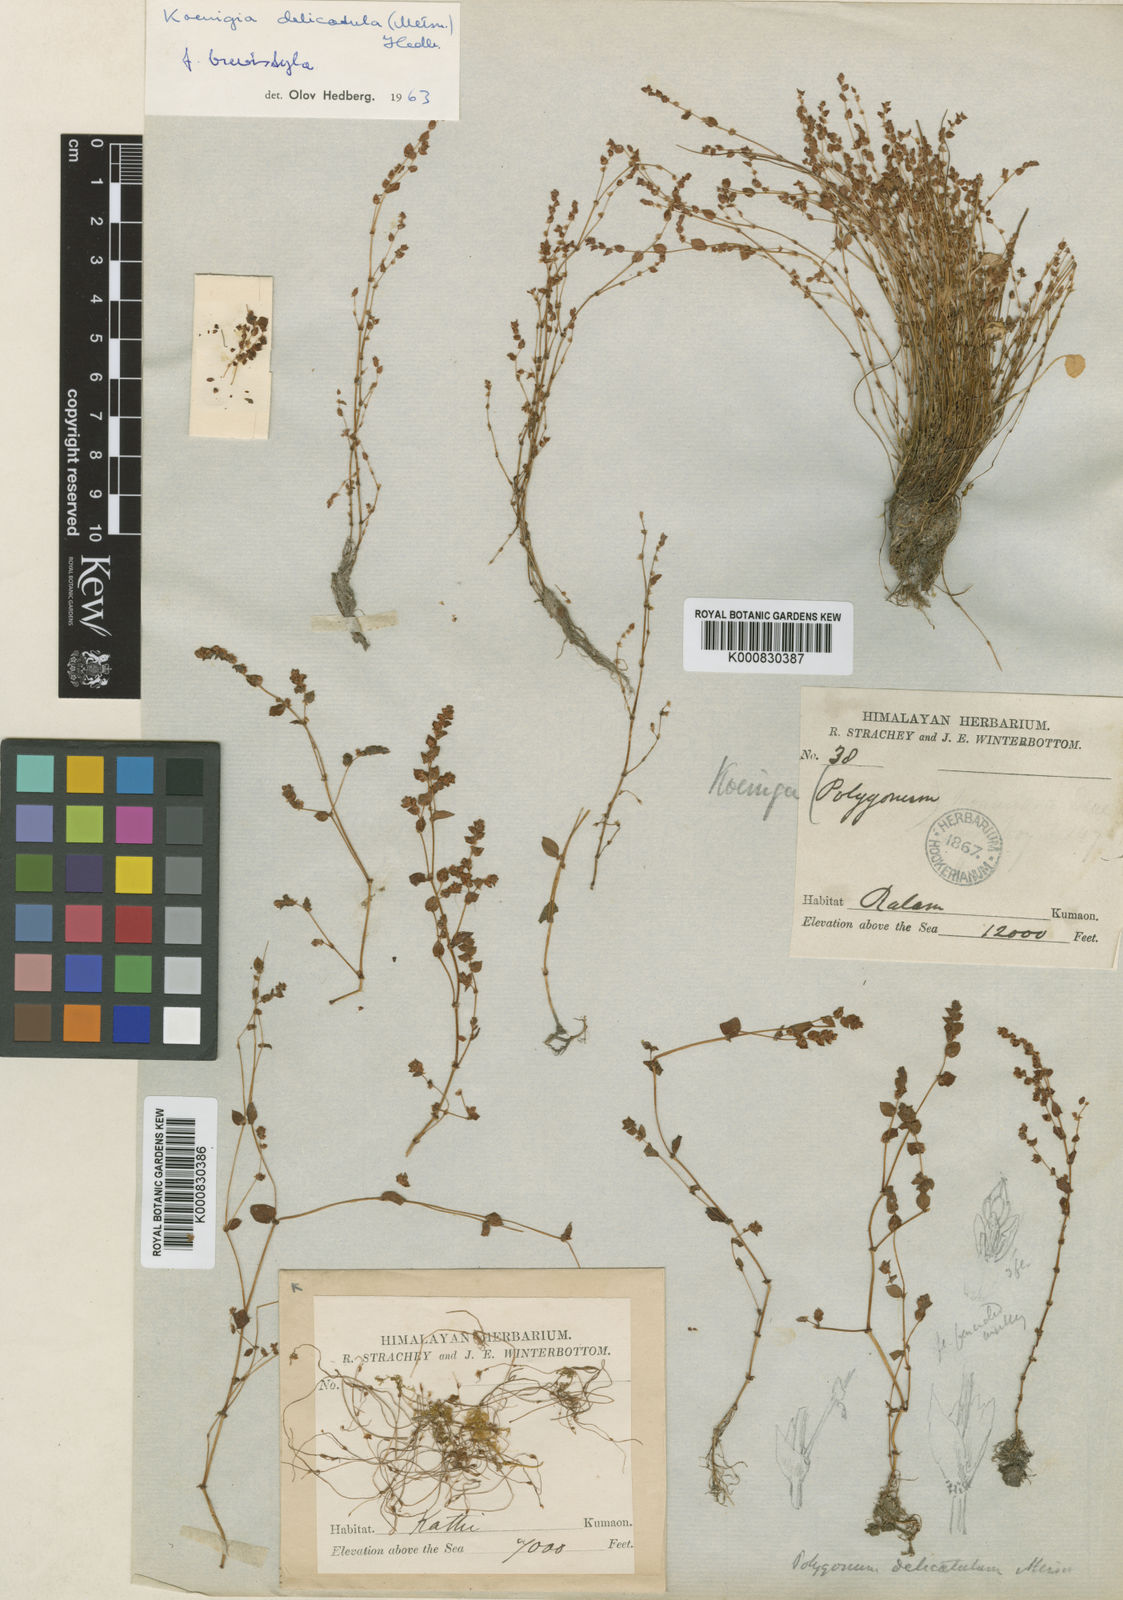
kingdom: Plantae
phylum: Tracheophyta
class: Magnoliopsida
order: Caryophyllales
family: Polygonaceae
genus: Koenigia
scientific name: Koenigia delicatula
